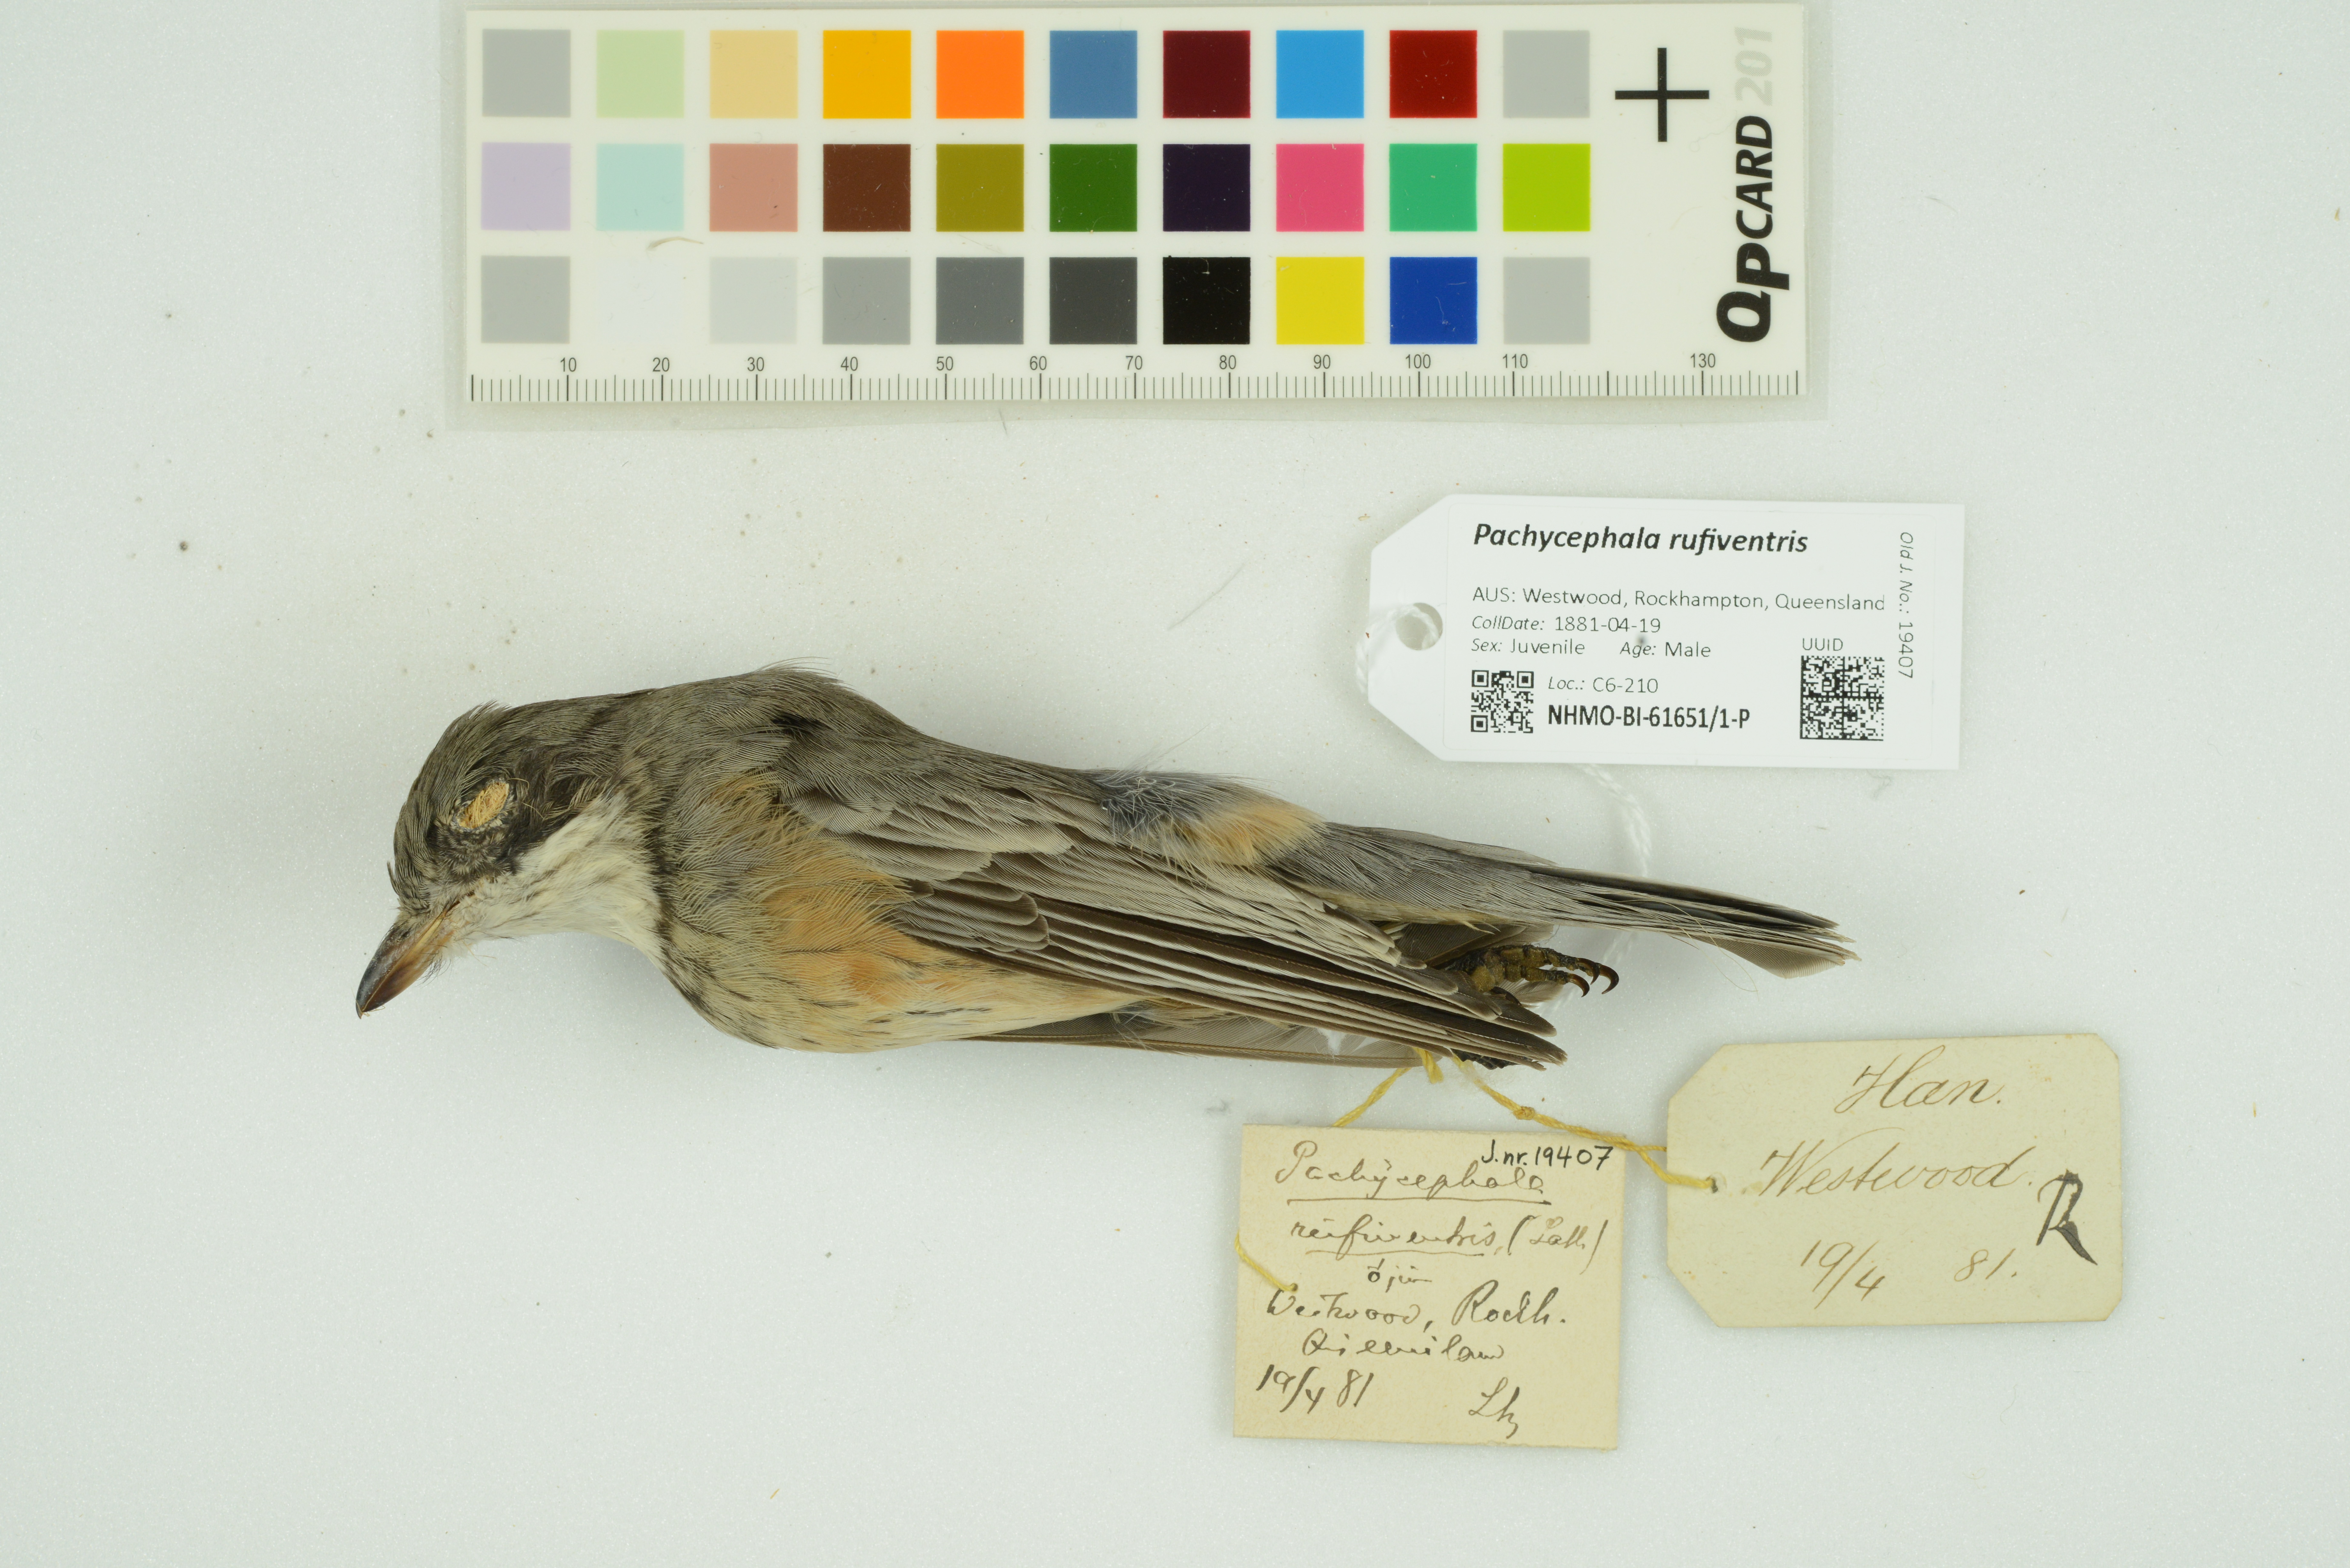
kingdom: Animalia
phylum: Chordata
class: Aves
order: Passeriformes
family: Pachycephalidae
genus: Pachycephala
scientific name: Pachycephala rufiventris
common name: Rufous whistler
